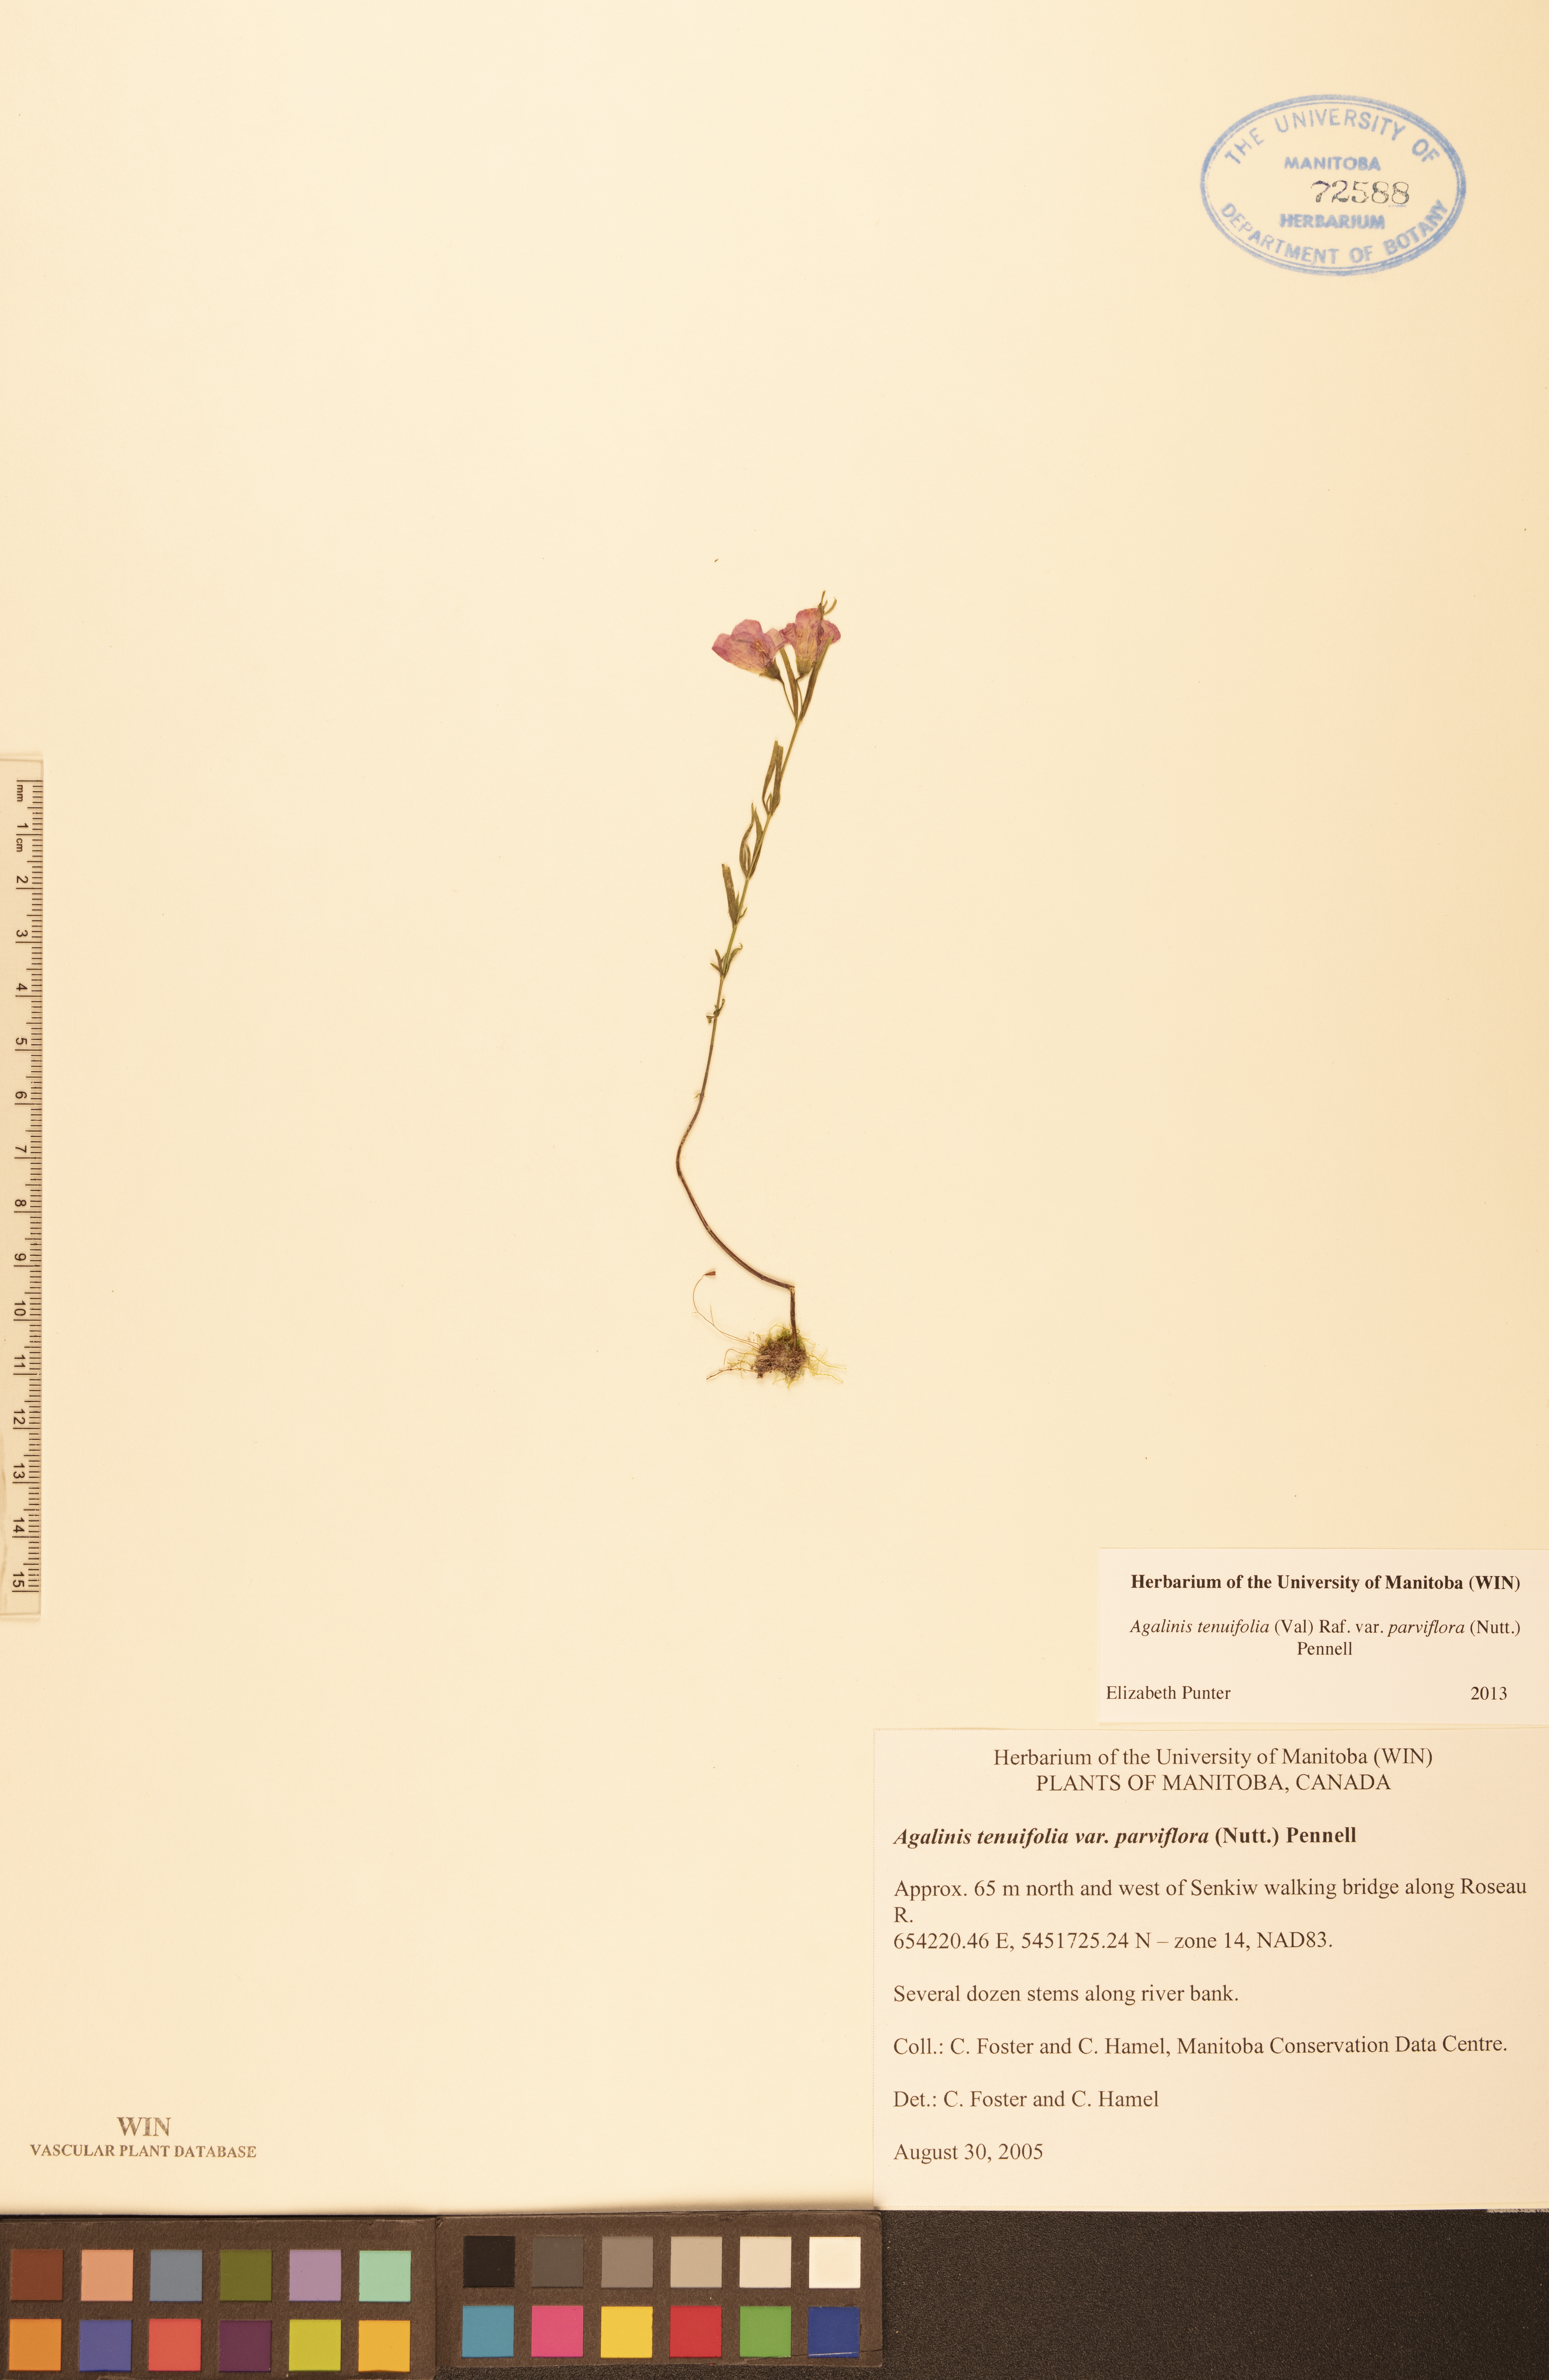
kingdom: Plantae
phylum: Tracheophyta
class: Magnoliopsida
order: Lamiales
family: Orobanchaceae
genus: Agalinis
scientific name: Agalinis tenuifolia
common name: Slender agalinis
